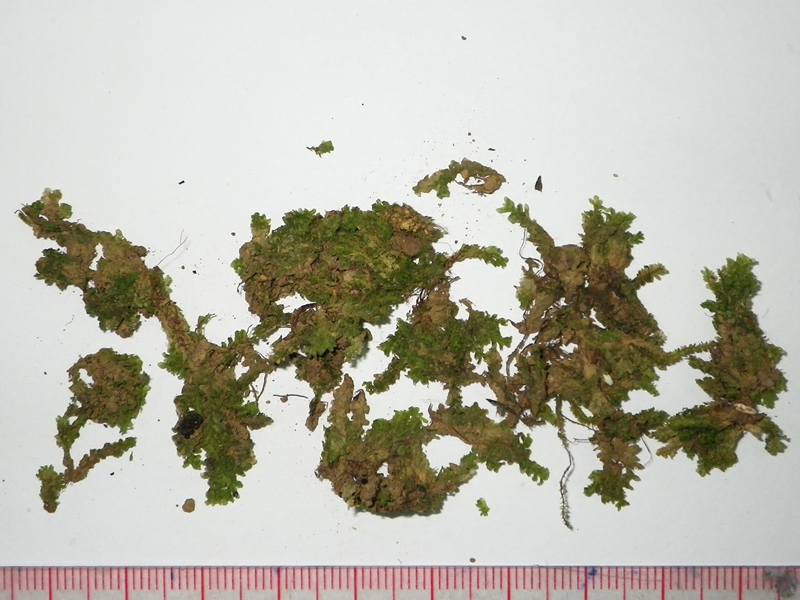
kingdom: Plantae
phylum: Bryophyta
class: Bryopsida
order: Hookeriales
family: Daltoniaceae
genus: Distichophyllum
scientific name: Distichophyllum montagneanum
